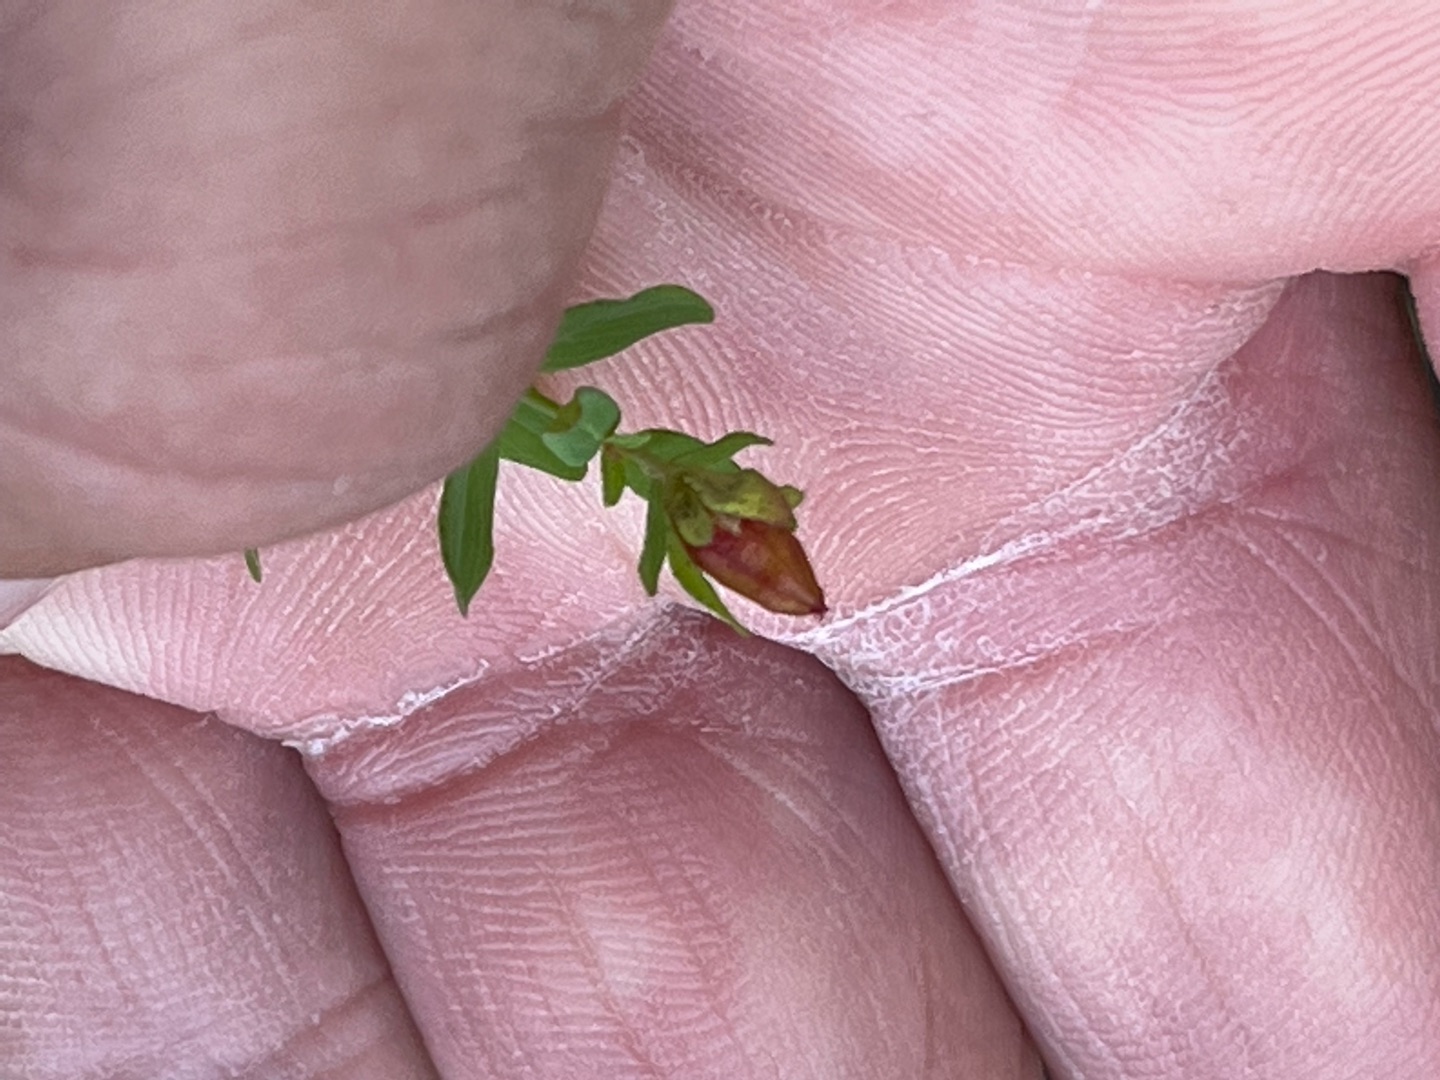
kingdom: Plantae
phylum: Tracheophyta
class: Magnoliopsida
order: Malpighiales
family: Hypericaceae
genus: Hypericum
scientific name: Hypericum humifusum
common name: Dværg-perikon
